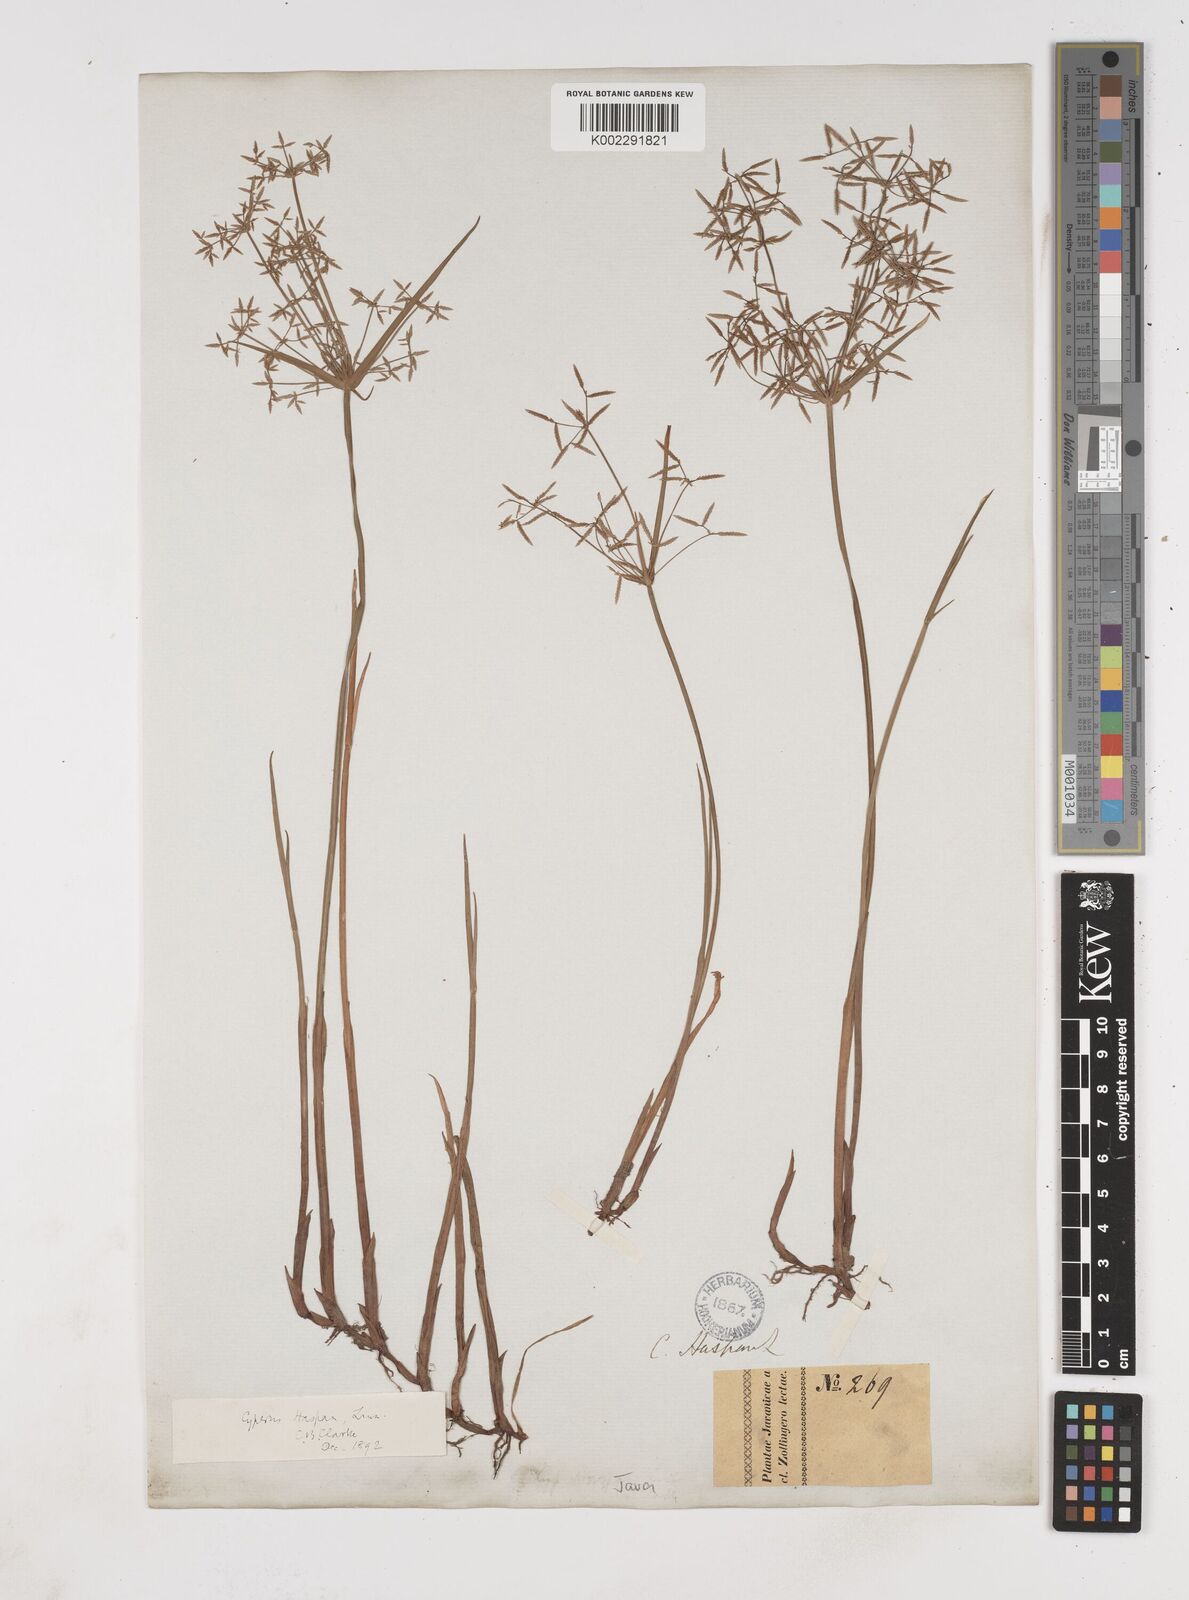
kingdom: Plantae
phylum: Tracheophyta
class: Liliopsida
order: Poales
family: Cyperaceae
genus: Cyperus
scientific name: Cyperus haspan
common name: Haspan flatsedge
